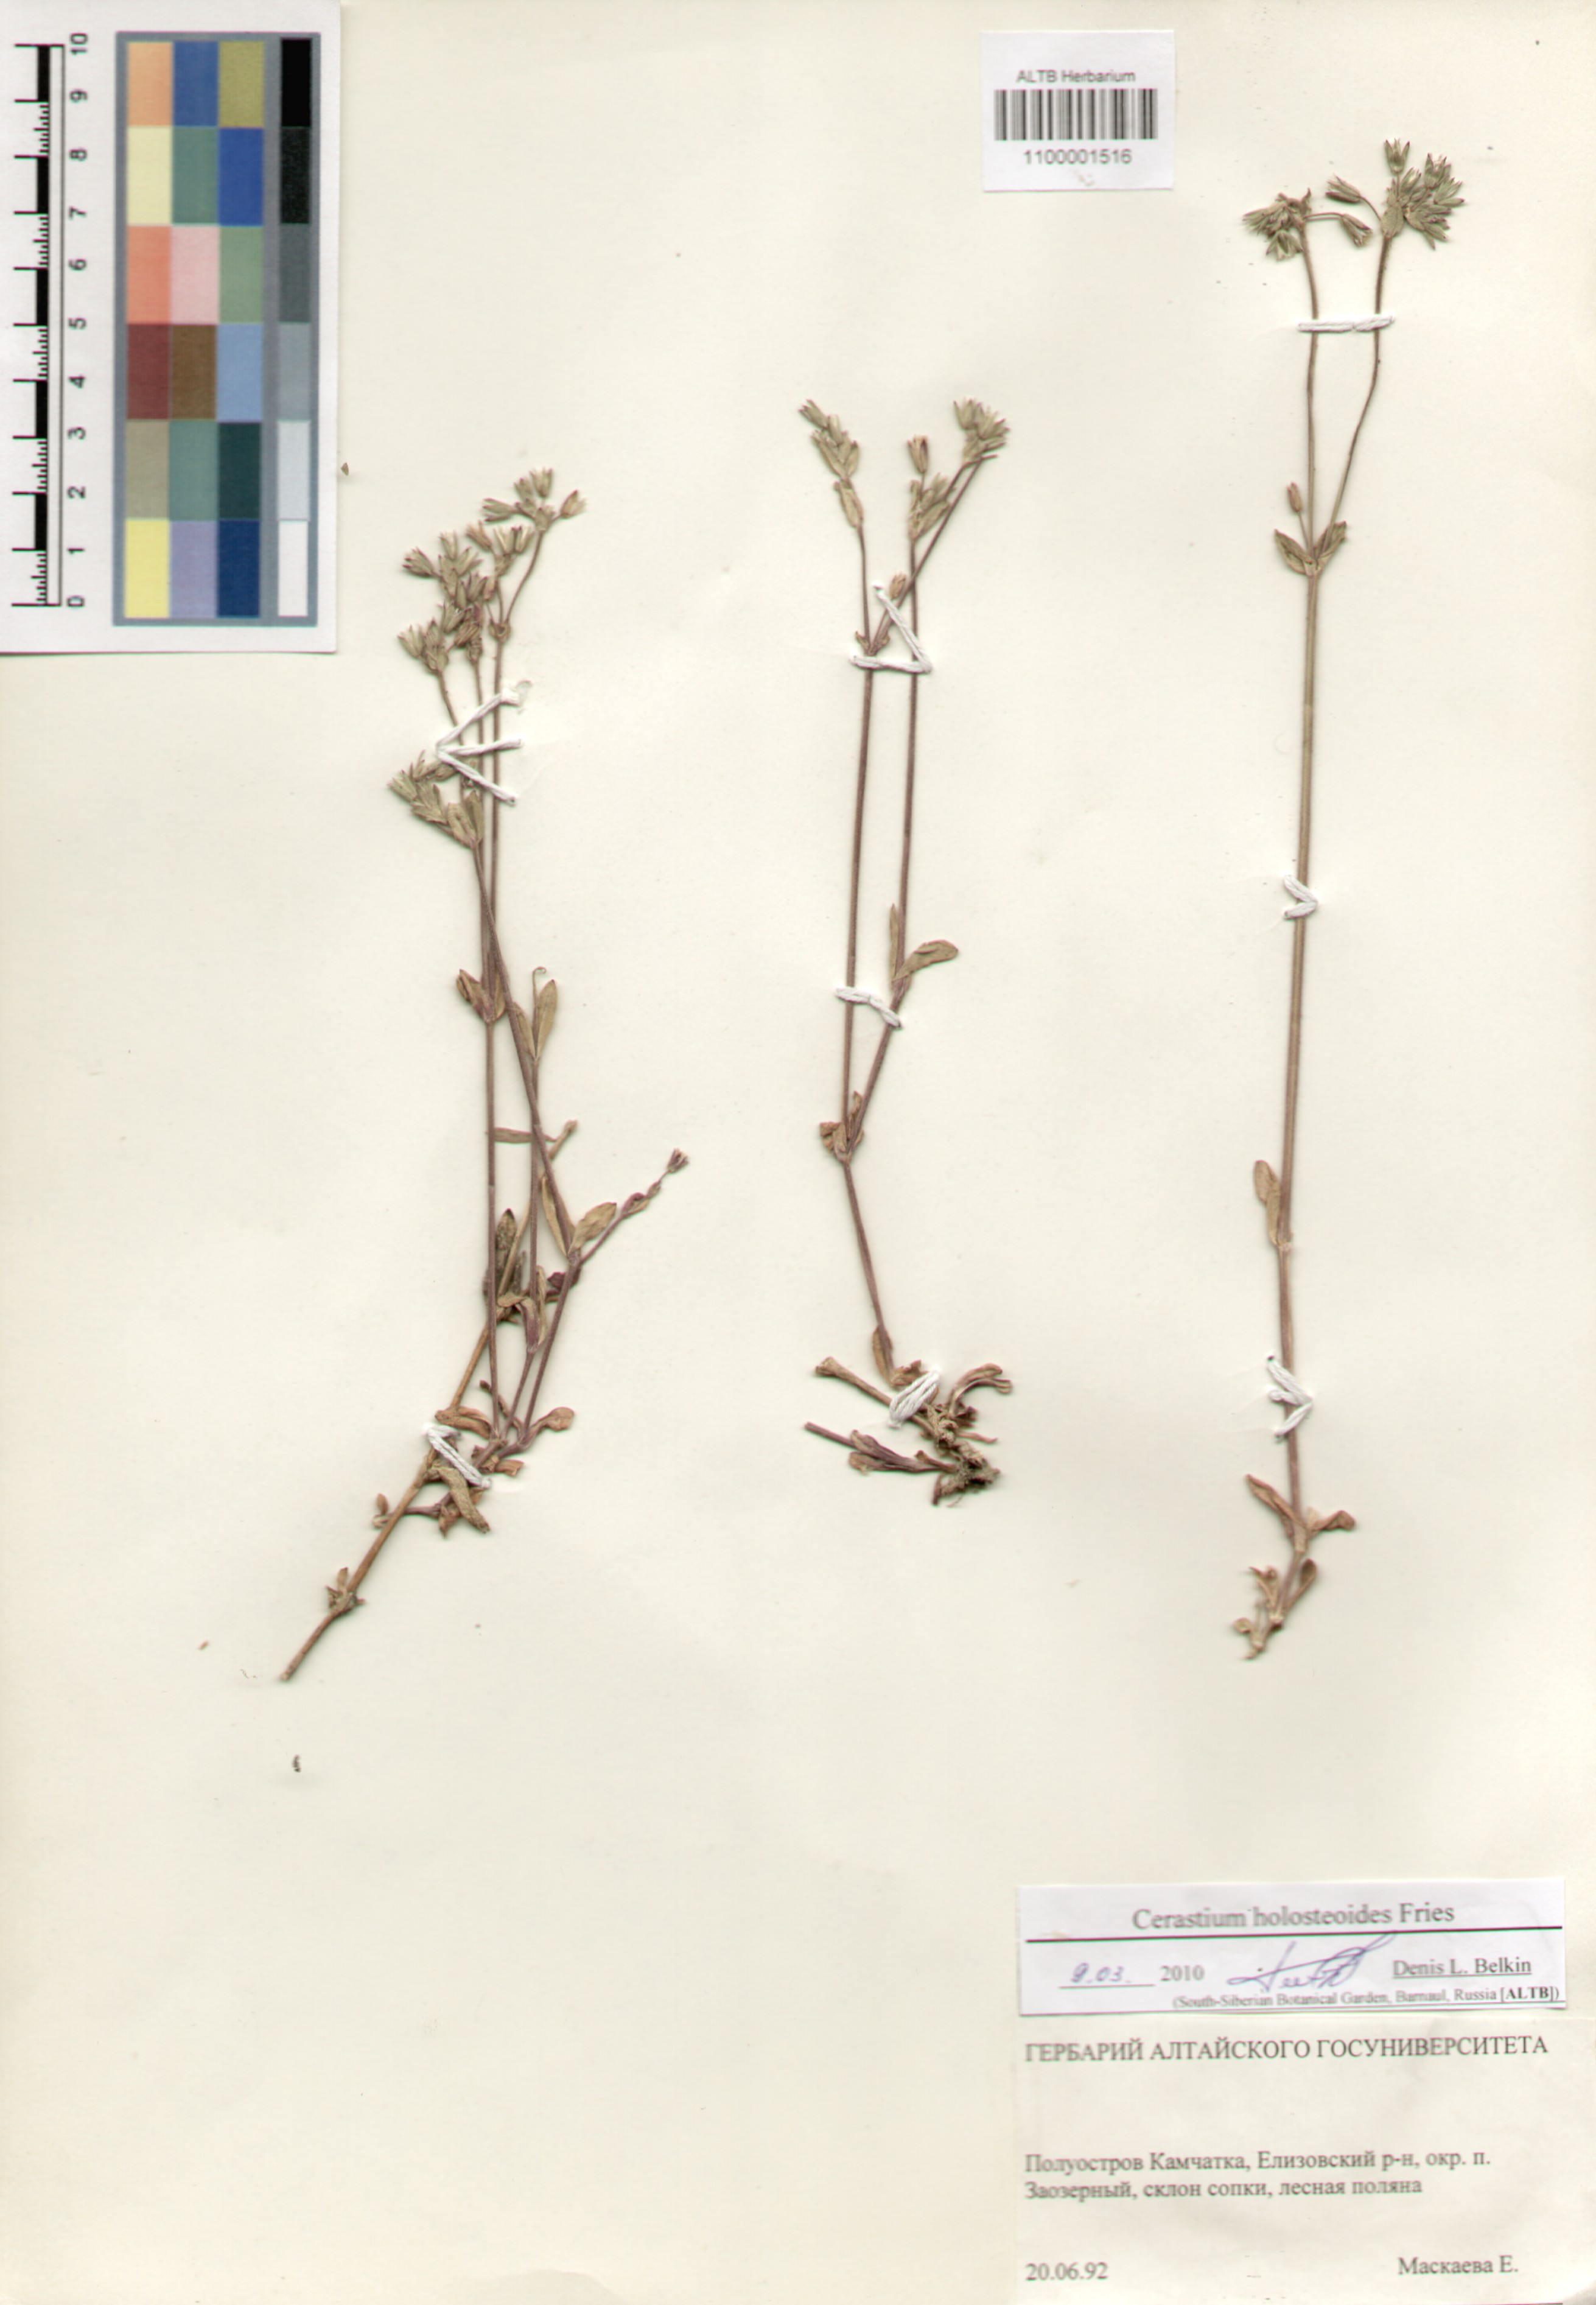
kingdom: Plantae
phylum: Tracheophyta
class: Magnoliopsida
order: Caryophyllales
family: Caryophyllaceae
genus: Cerastium
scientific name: Cerastium holosteoides
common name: Big chickweed
